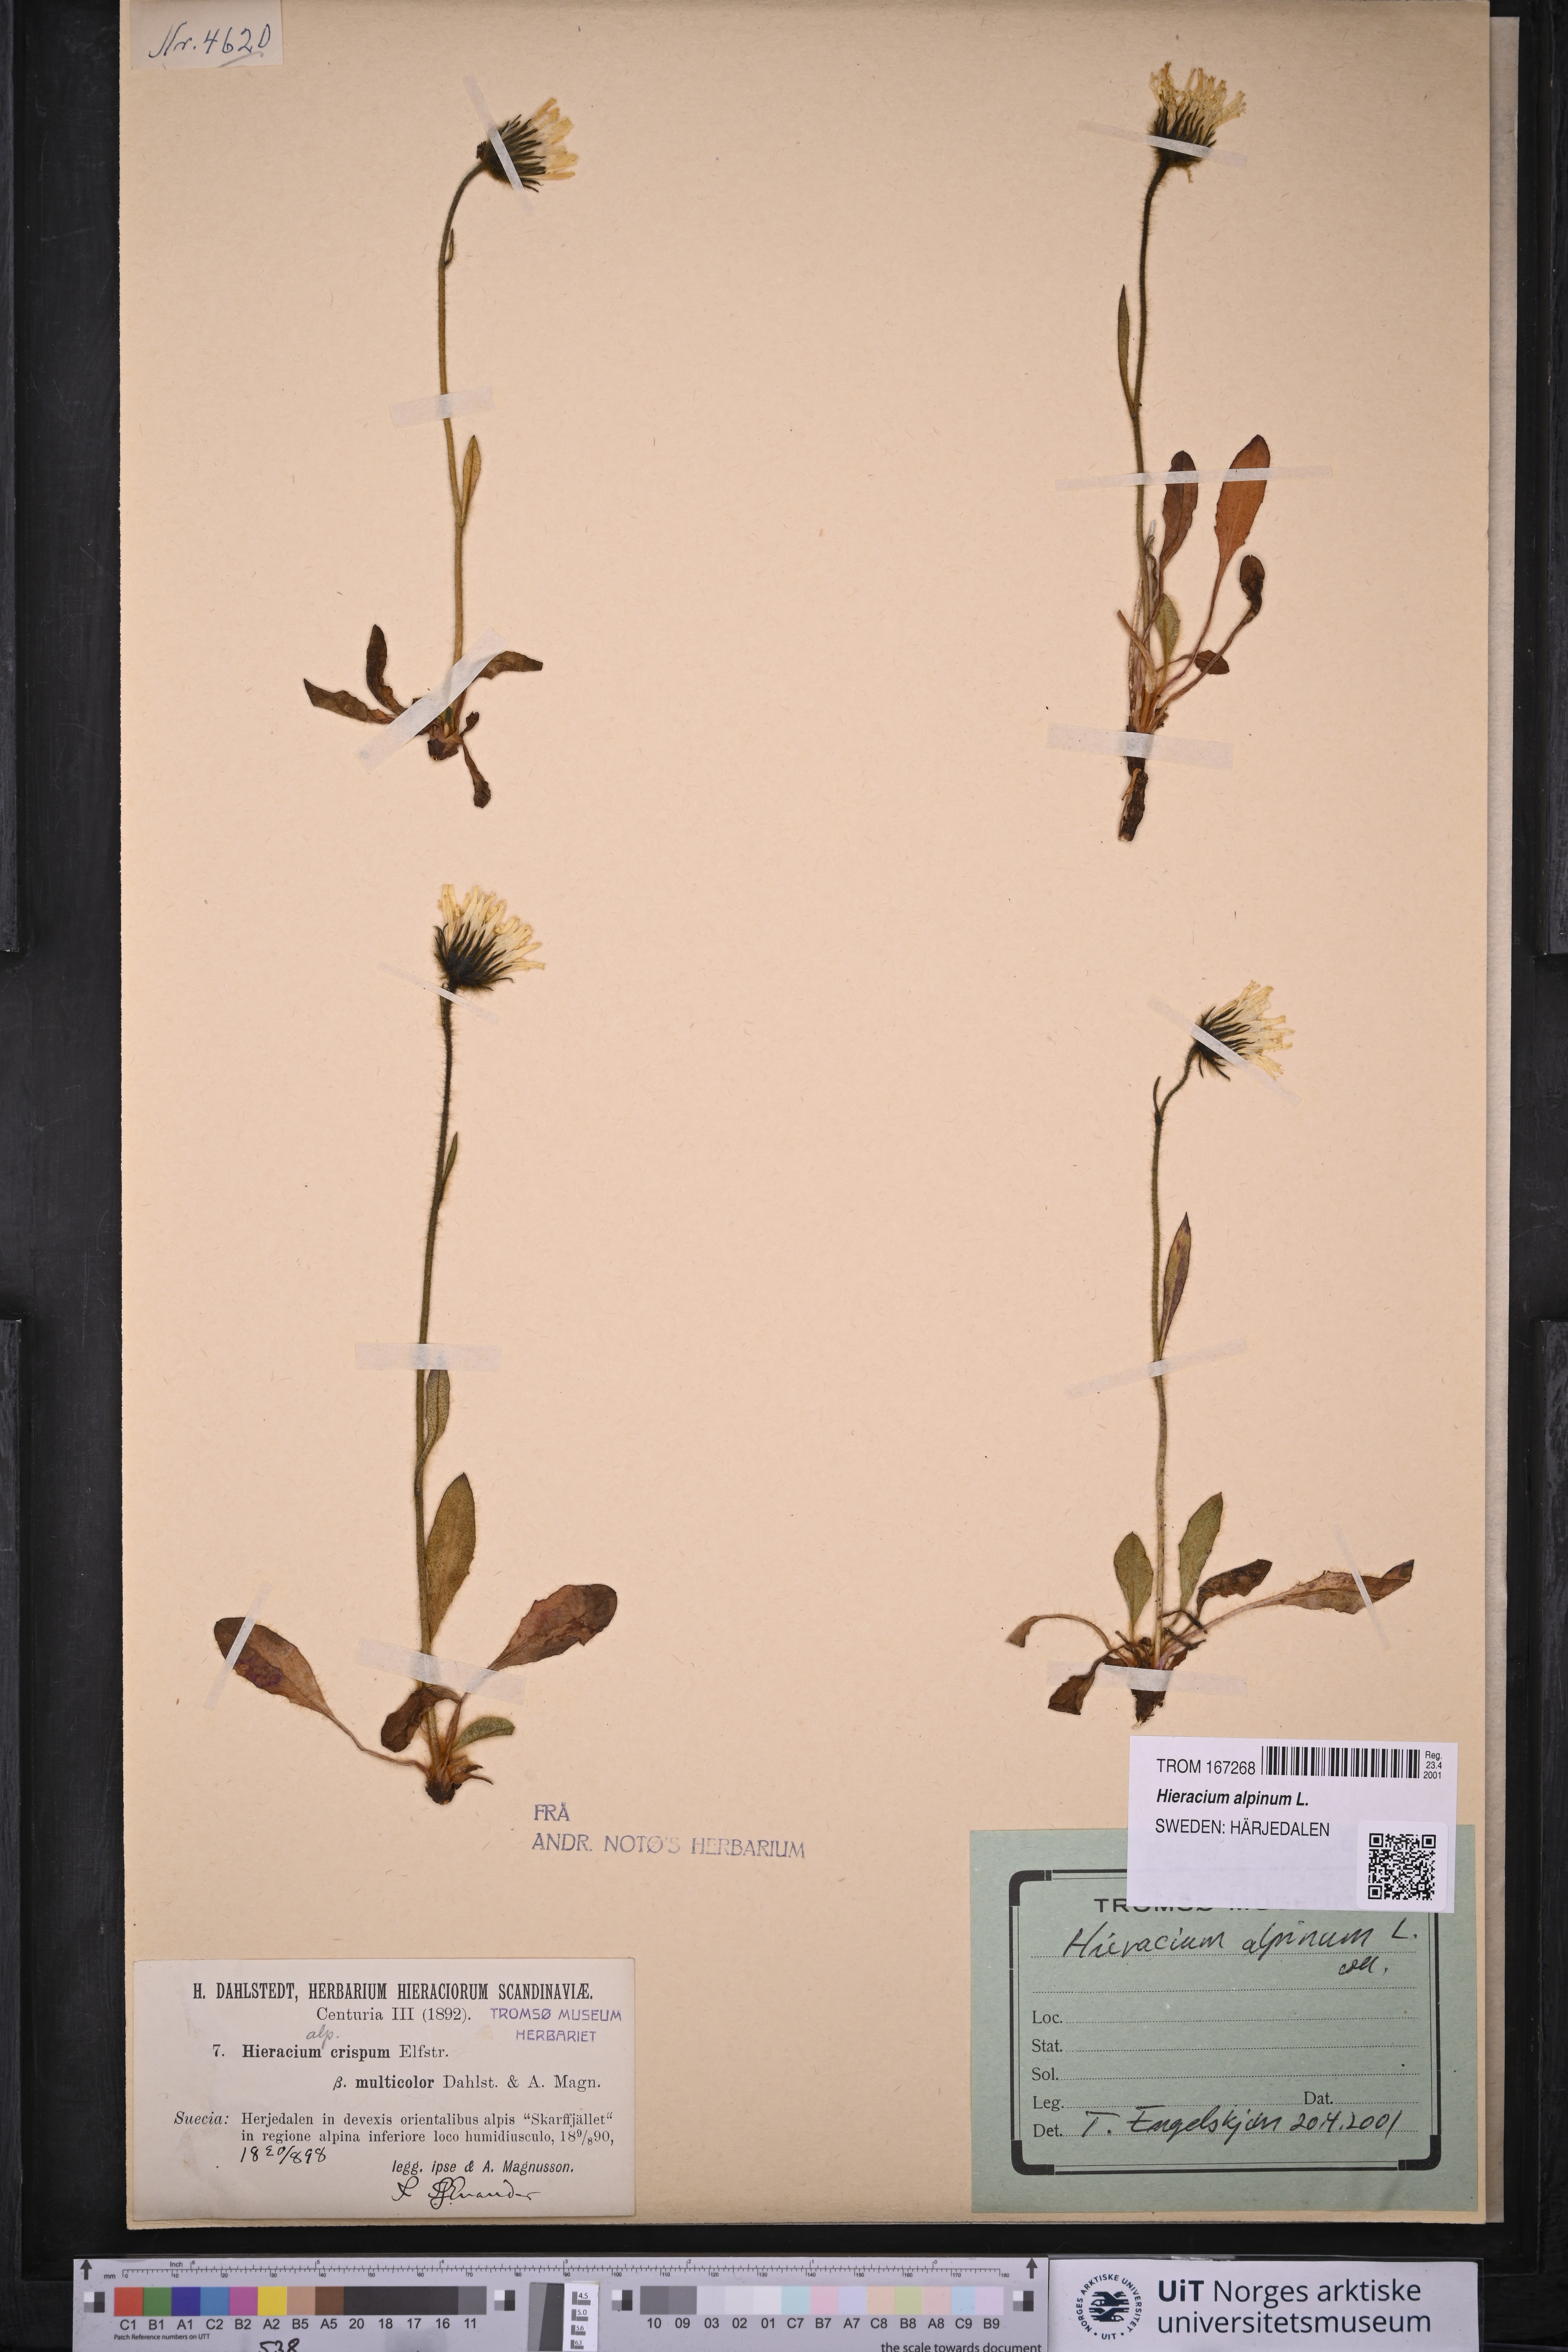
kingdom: Plantae
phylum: Tracheophyta
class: Magnoliopsida
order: Asterales
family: Asteraceae
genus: Hieracium
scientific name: Hieracium alpinum
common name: Alpine hawkweed
